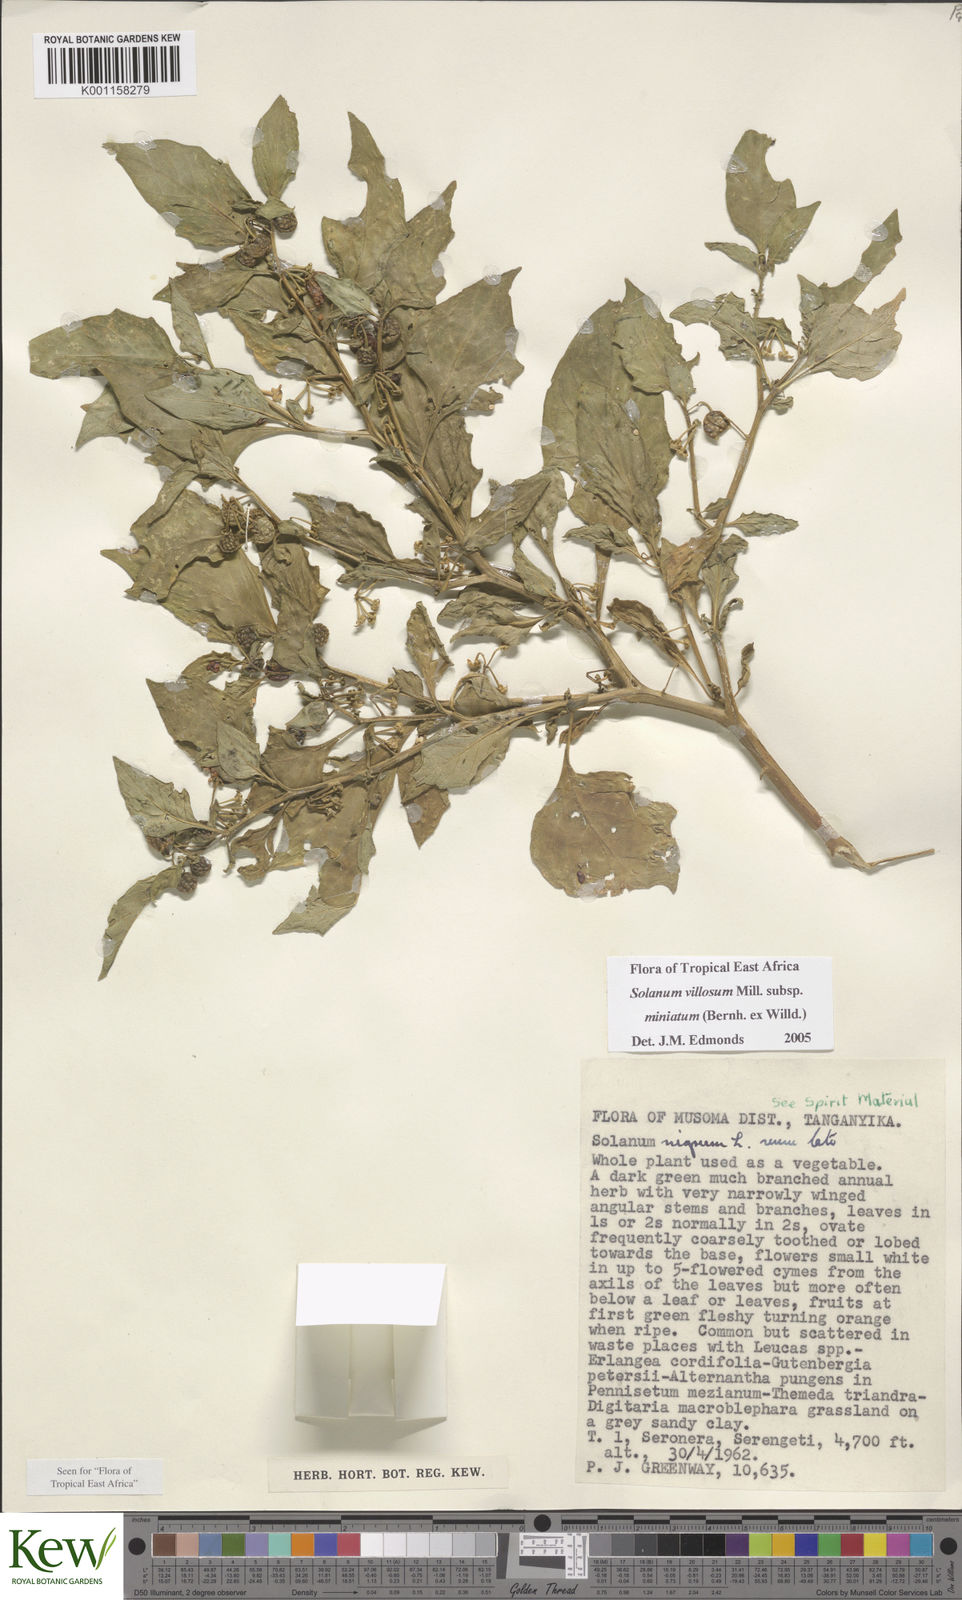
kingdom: Plantae
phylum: Tracheophyta
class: Magnoliopsida
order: Solanales
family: Solanaceae
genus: Solanum
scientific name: Solanum villosum
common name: Red nightshade
